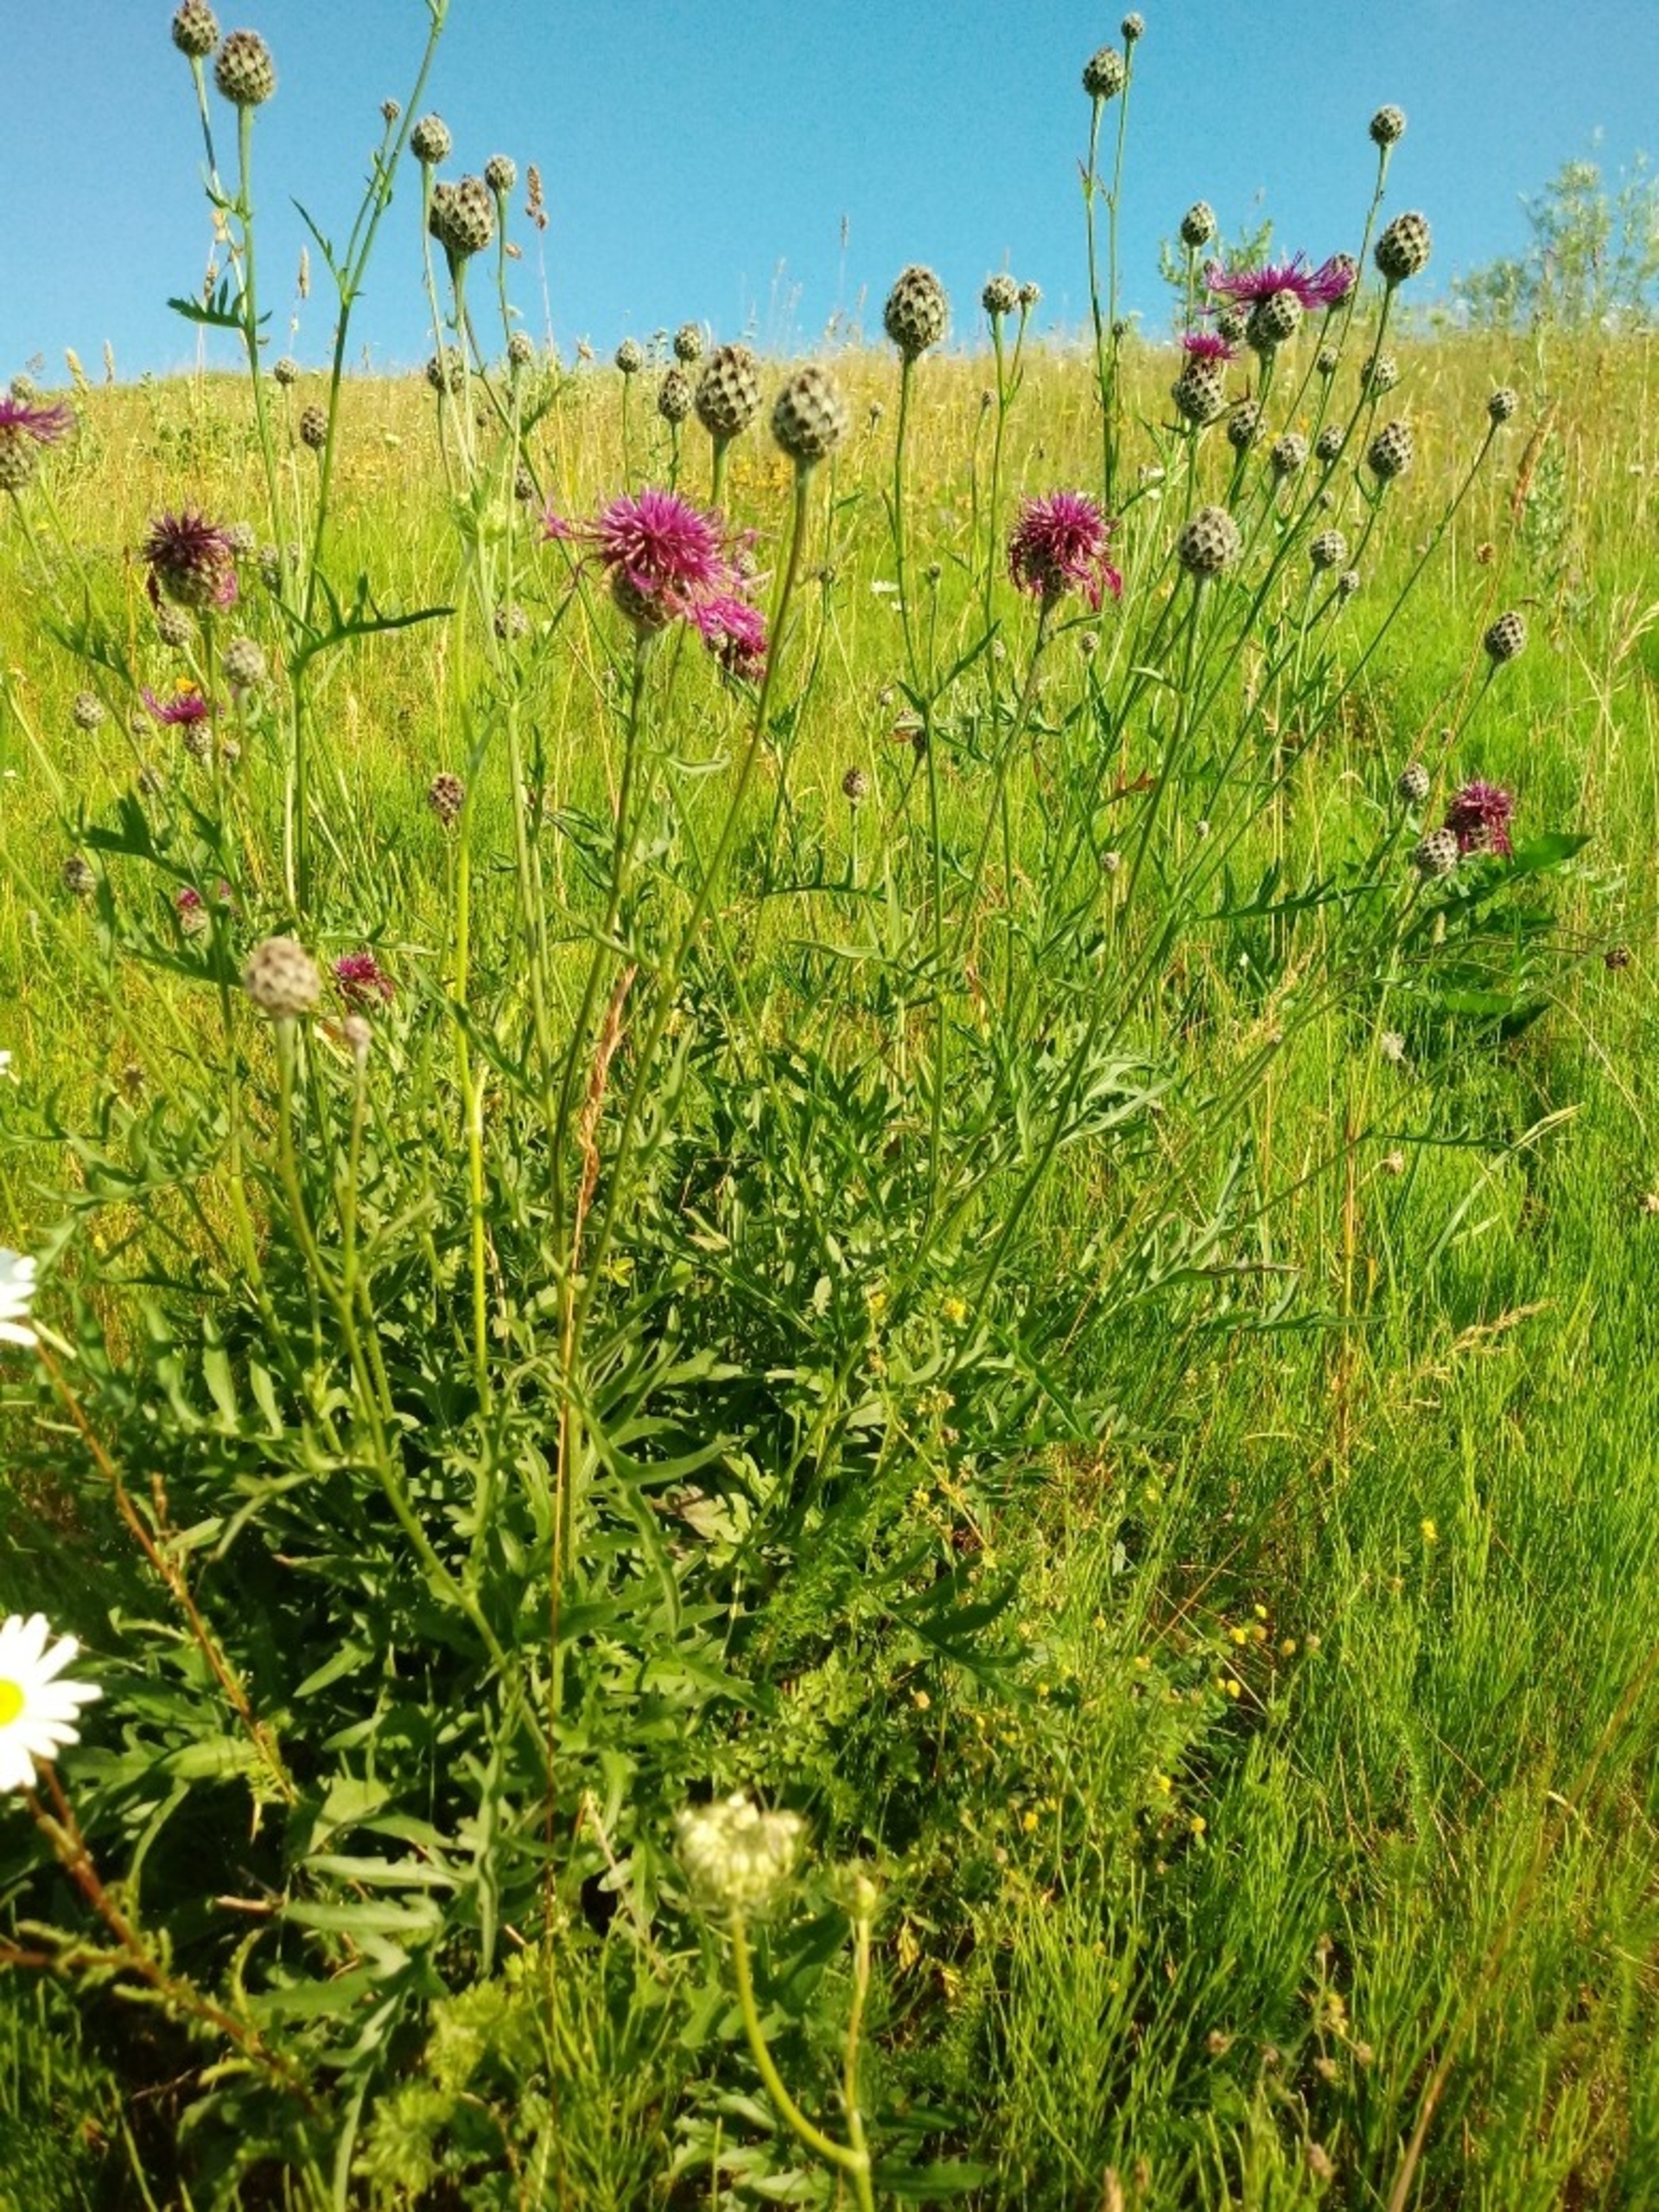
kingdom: Plantae
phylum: Tracheophyta
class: Magnoliopsida
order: Asterales
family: Asteraceae
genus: Centaurea
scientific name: Centaurea scabiosa
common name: Stor knopurt
